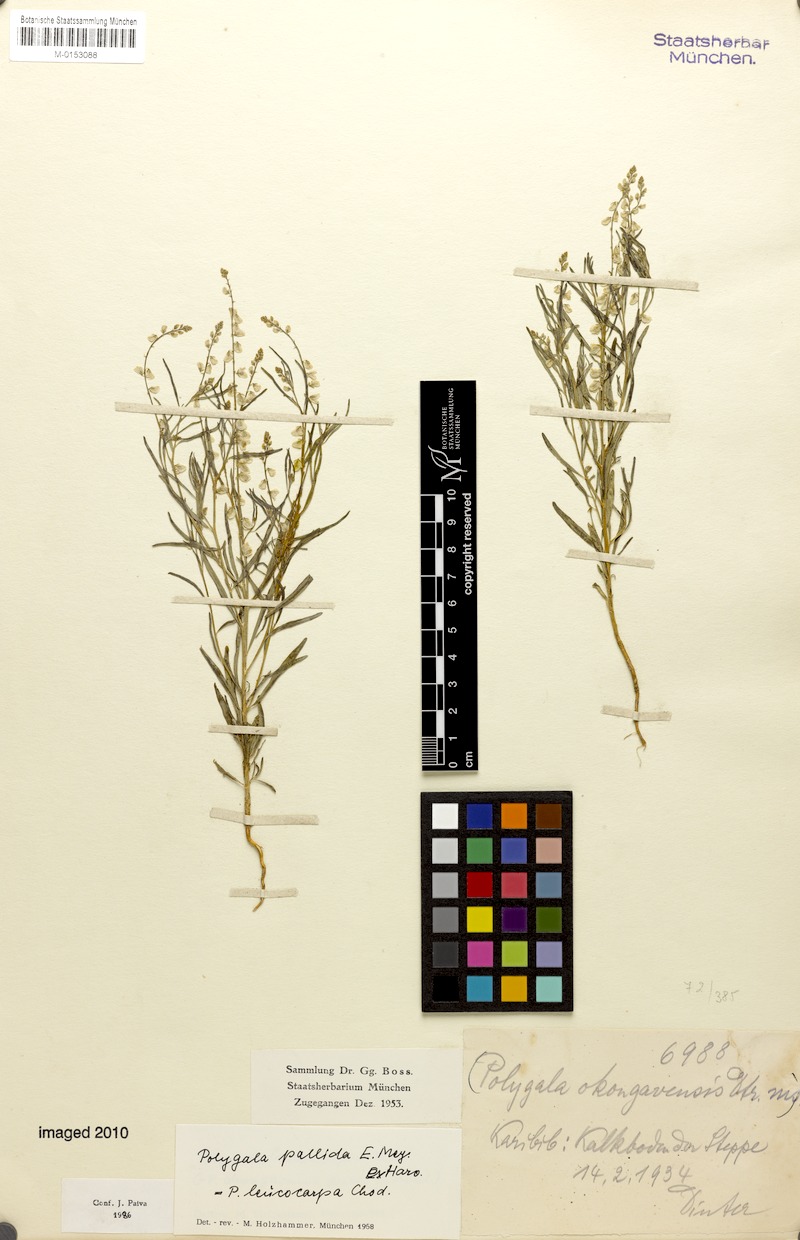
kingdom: Plantae
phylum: Tracheophyta
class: Magnoliopsida
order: Fabales
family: Polygalaceae
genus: Polygala
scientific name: Polygala pallida
